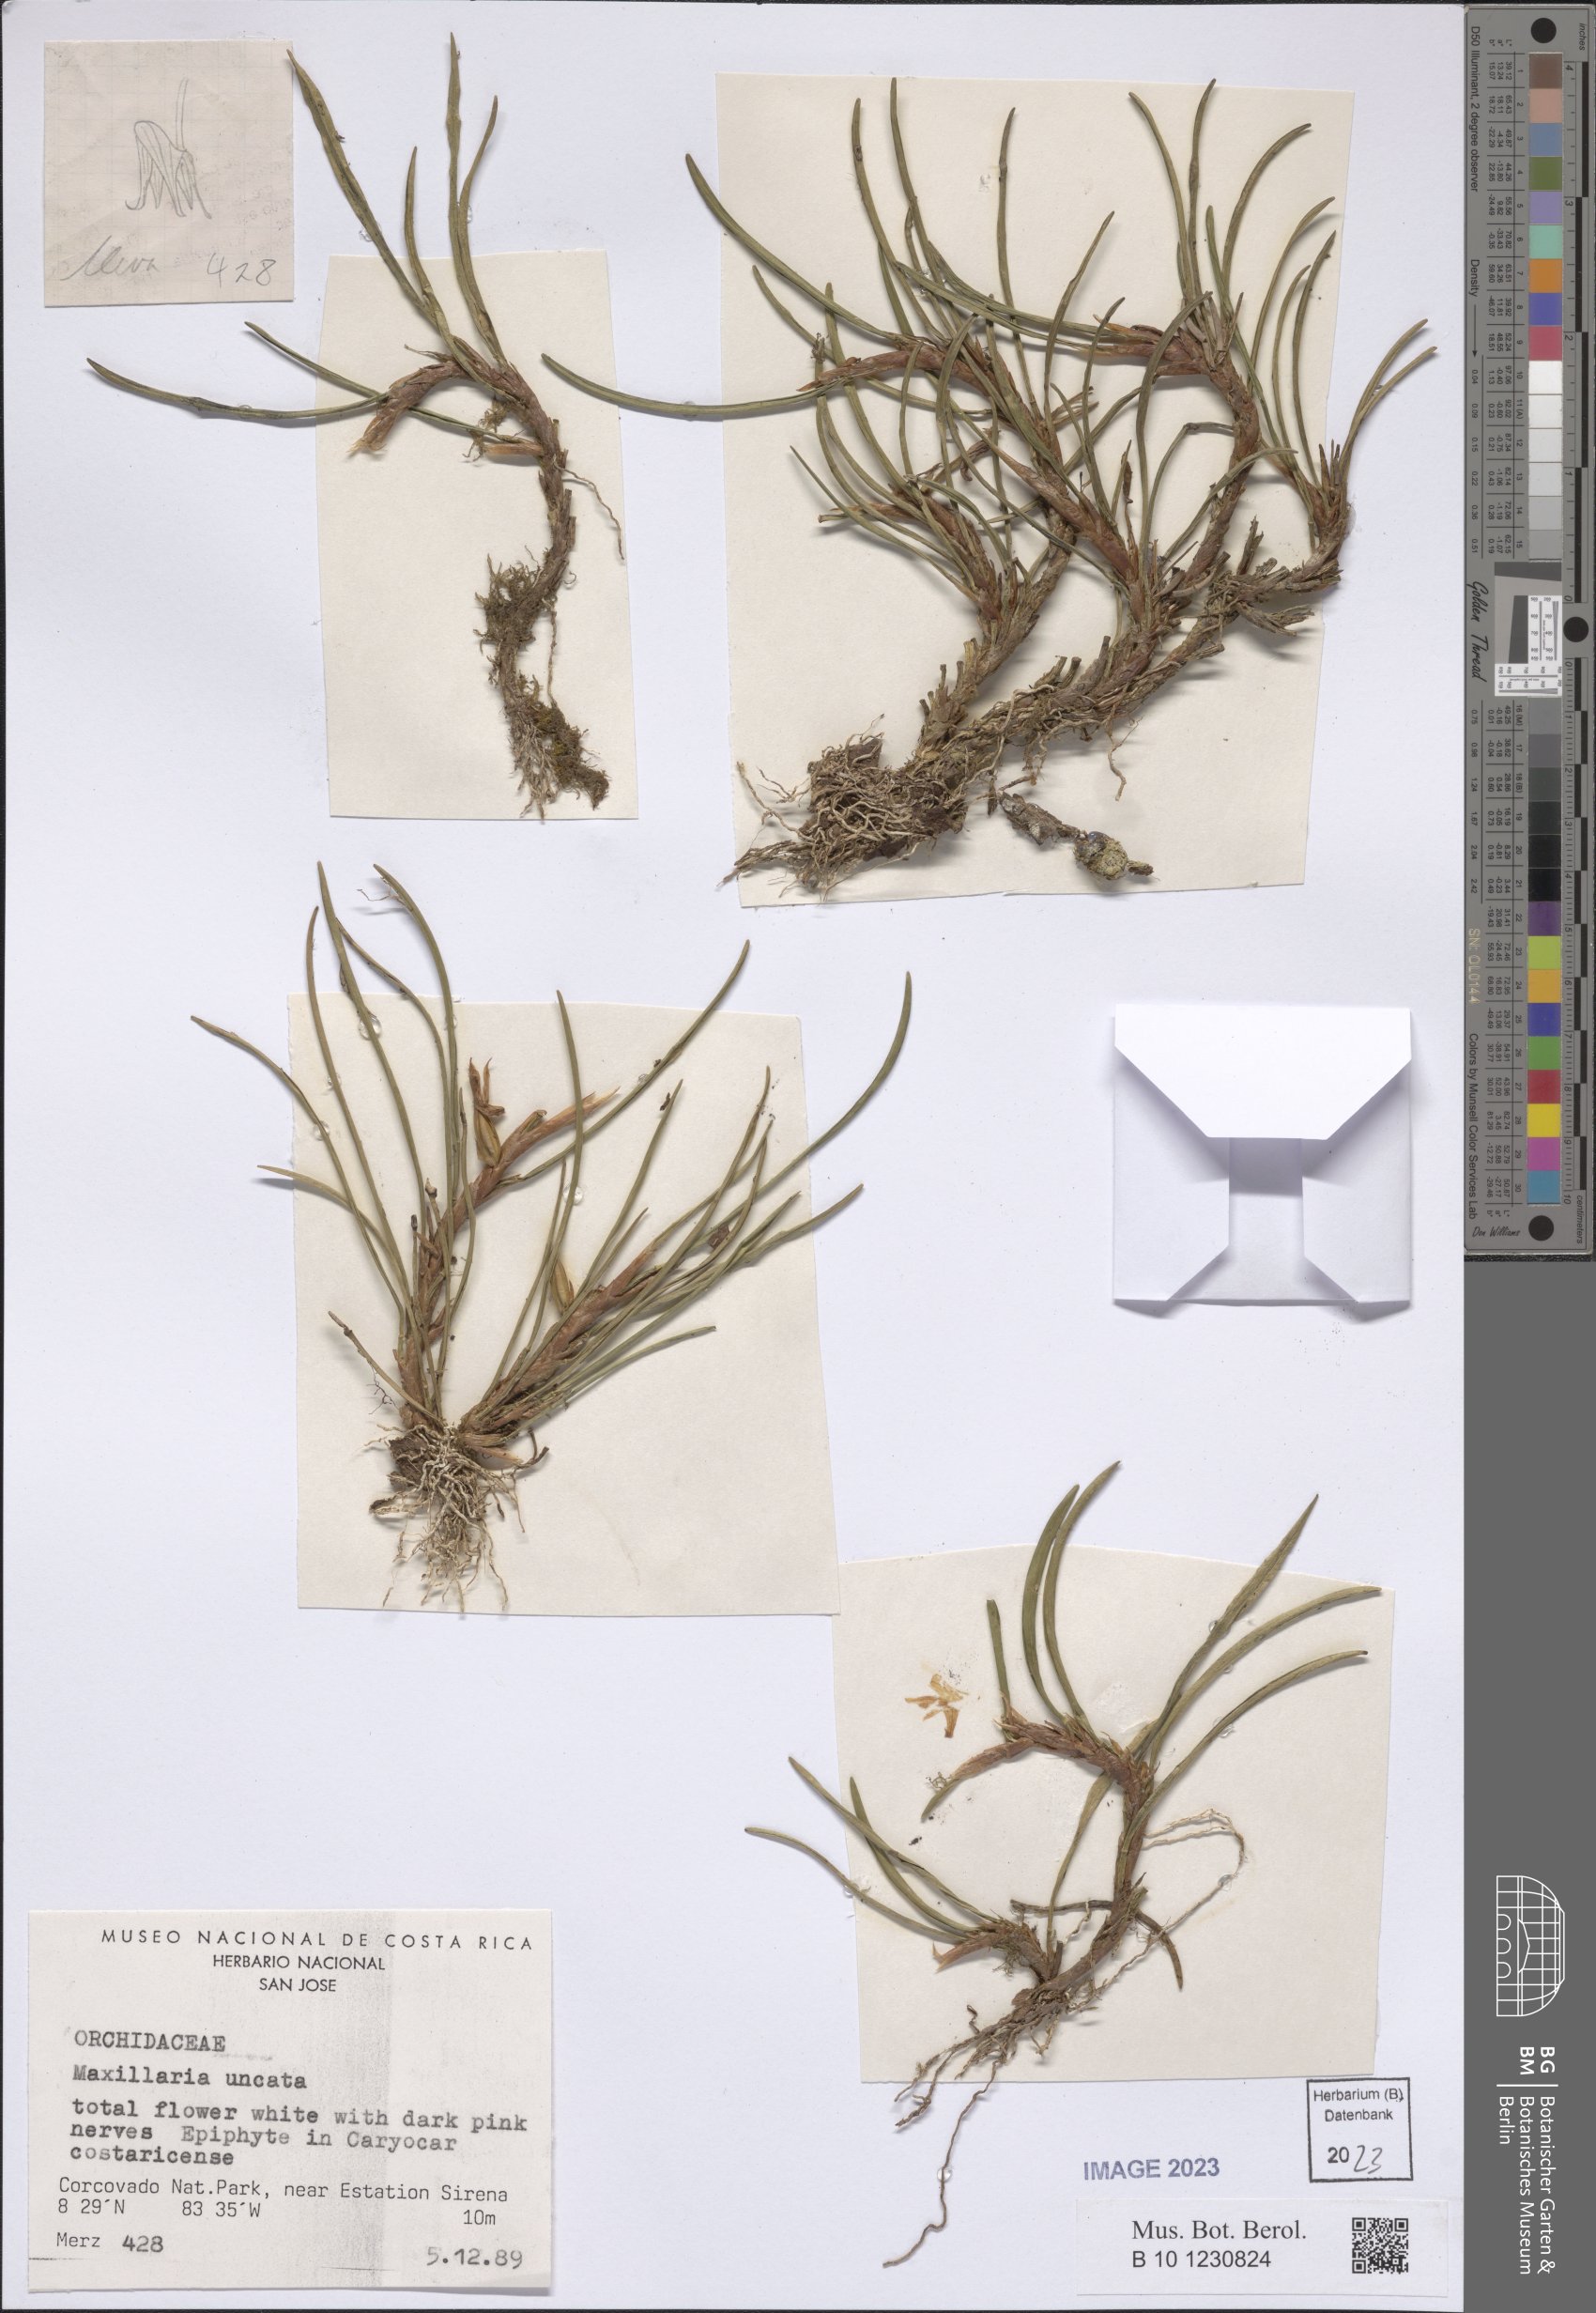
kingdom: Plantae
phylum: Tracheophyta
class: Liliopsida
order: Asparagales
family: Orchidaceae
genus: Maxillaria
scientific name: Maxillaria uncata
